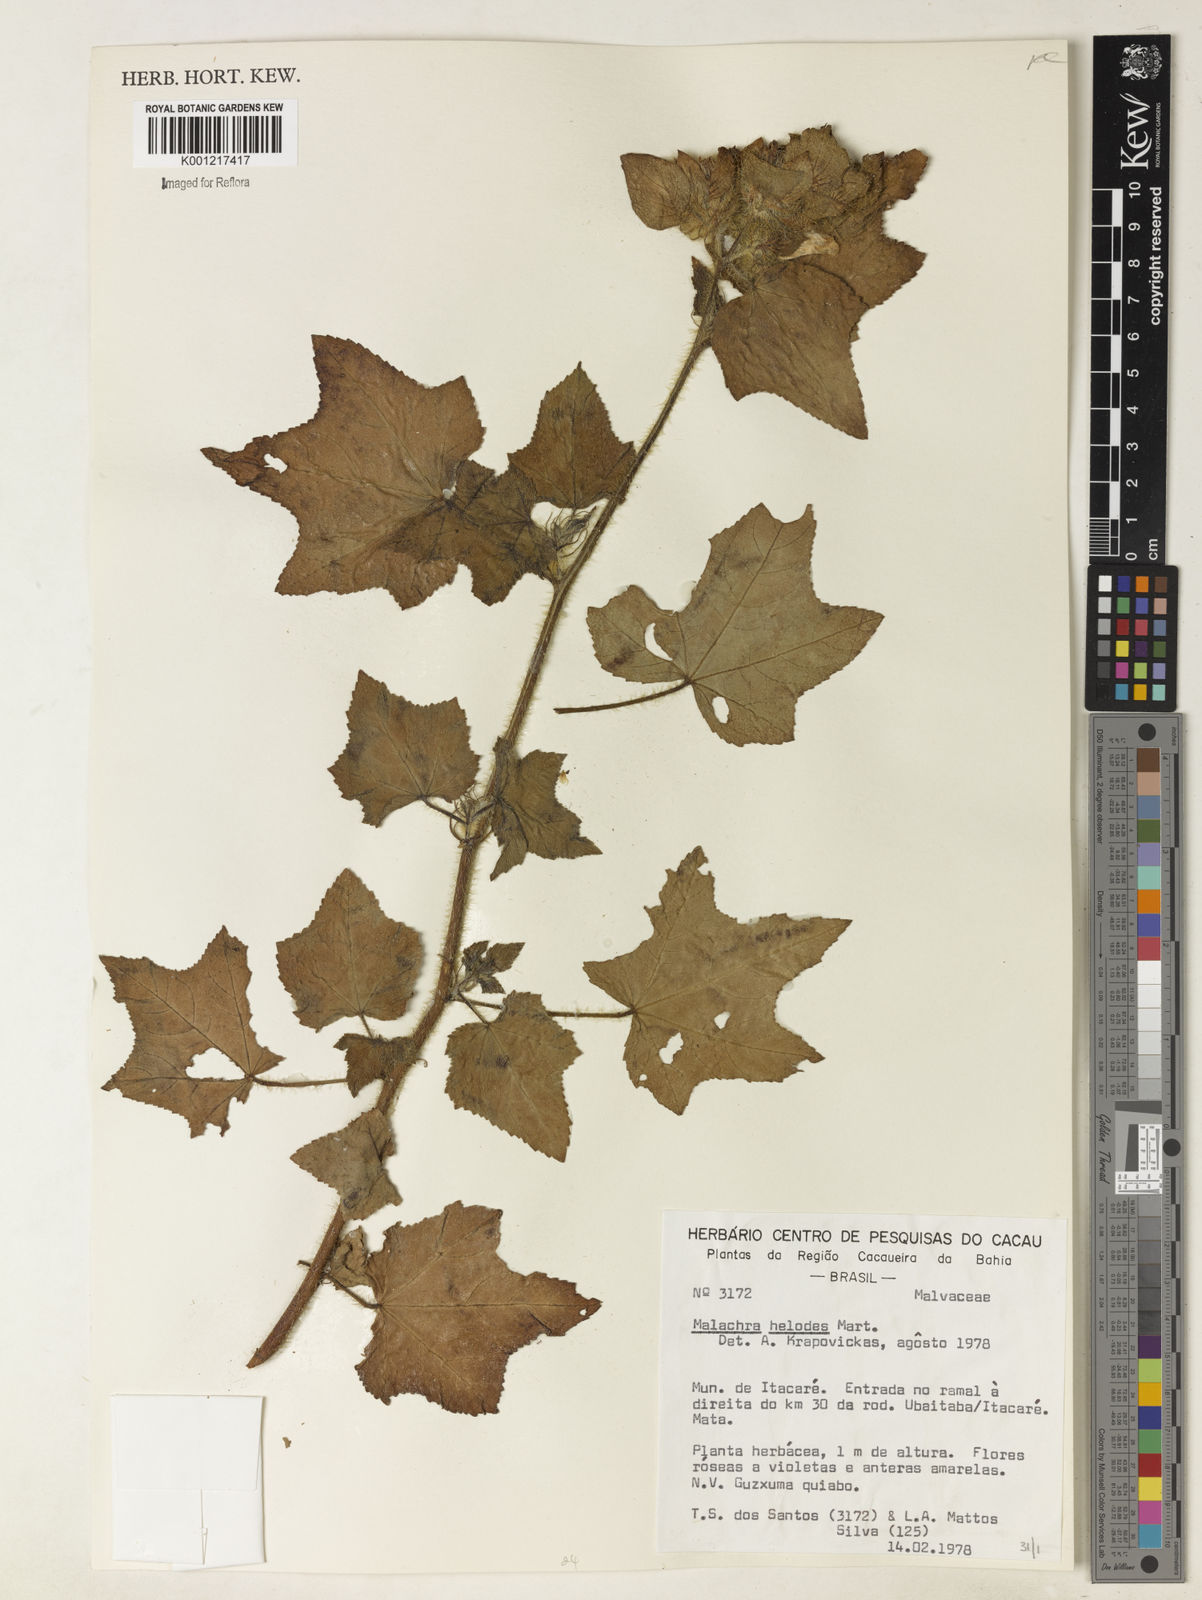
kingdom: Plantae
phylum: Tracheophyta
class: Magnoliopsida
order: Malvales
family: Malvaceae
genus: Malachra
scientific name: Malachra helodes
